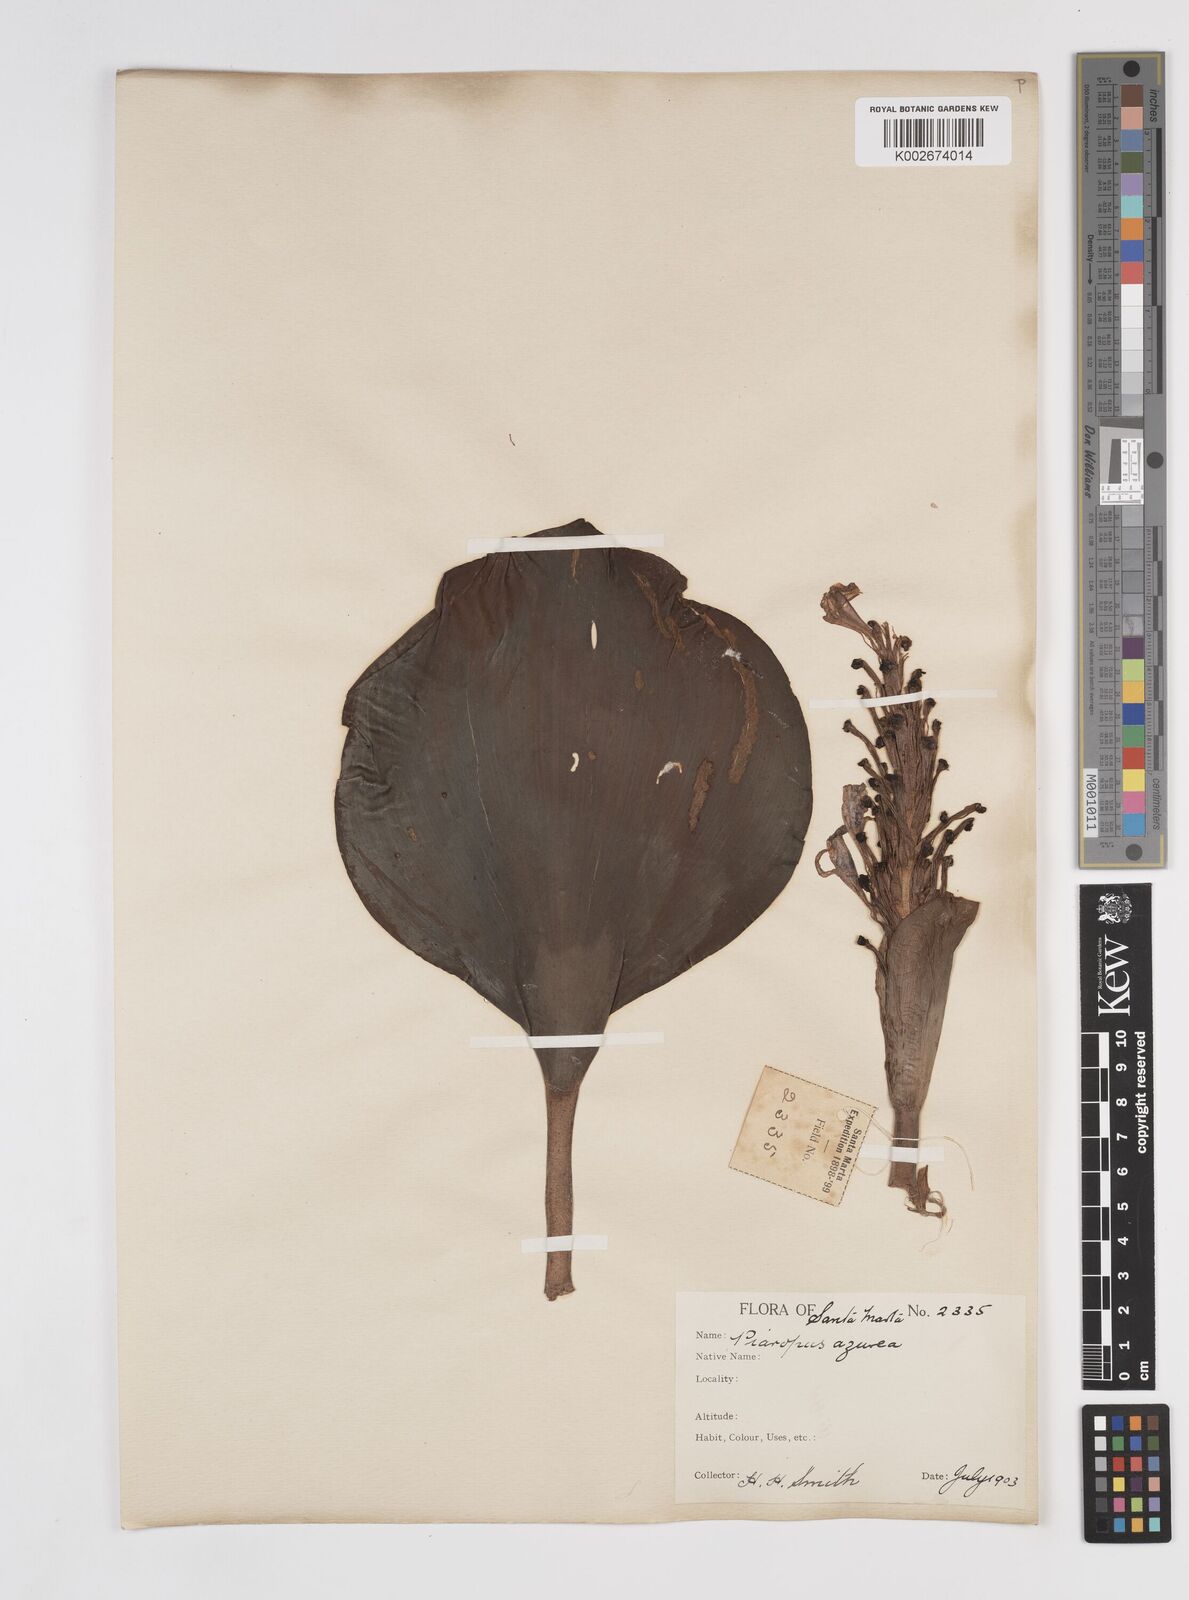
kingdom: Plantae
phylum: Tracheophyta
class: Liliopsida
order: Commelinales
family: Pontederiaceae
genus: Pontederia
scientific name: Pontederia azurea
